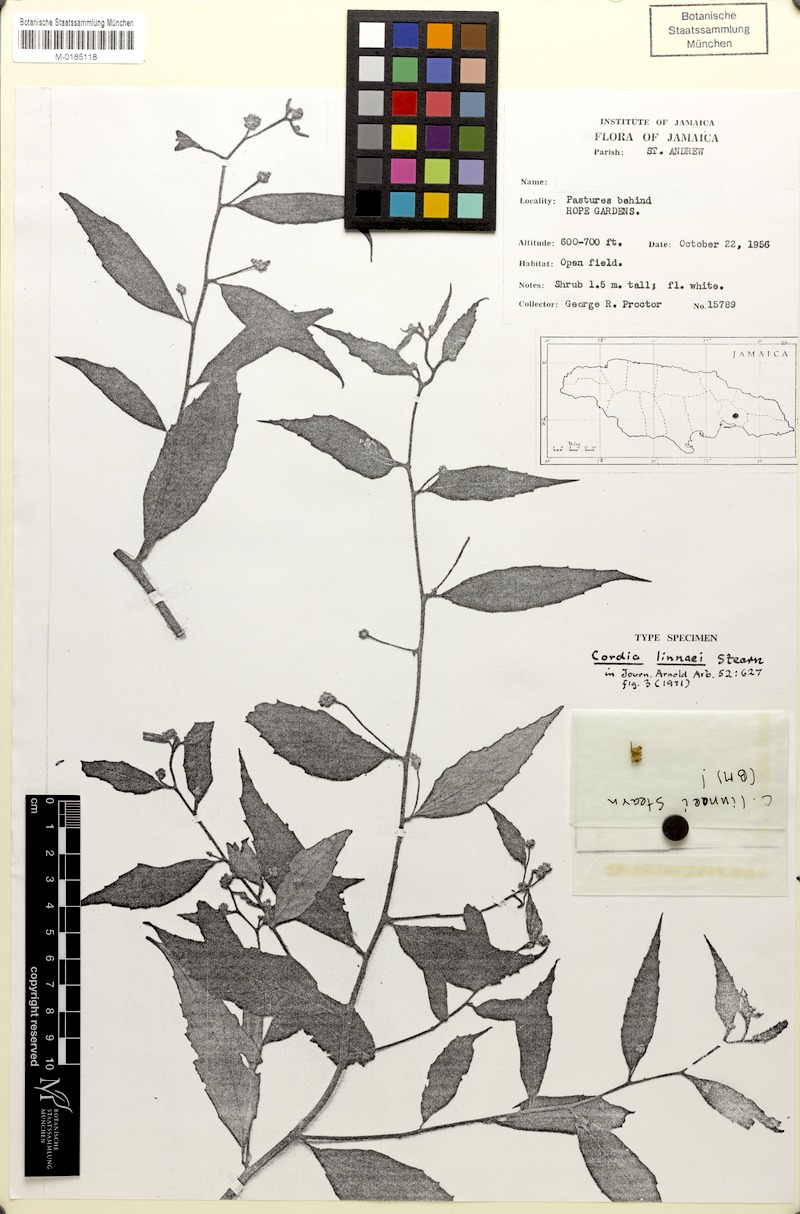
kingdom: Plantae
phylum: Tracheophyta
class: Magnoliopsida
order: Boraginales
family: Cordiaceae
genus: Varronia
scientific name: Varronia polycephala
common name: Black-sage
